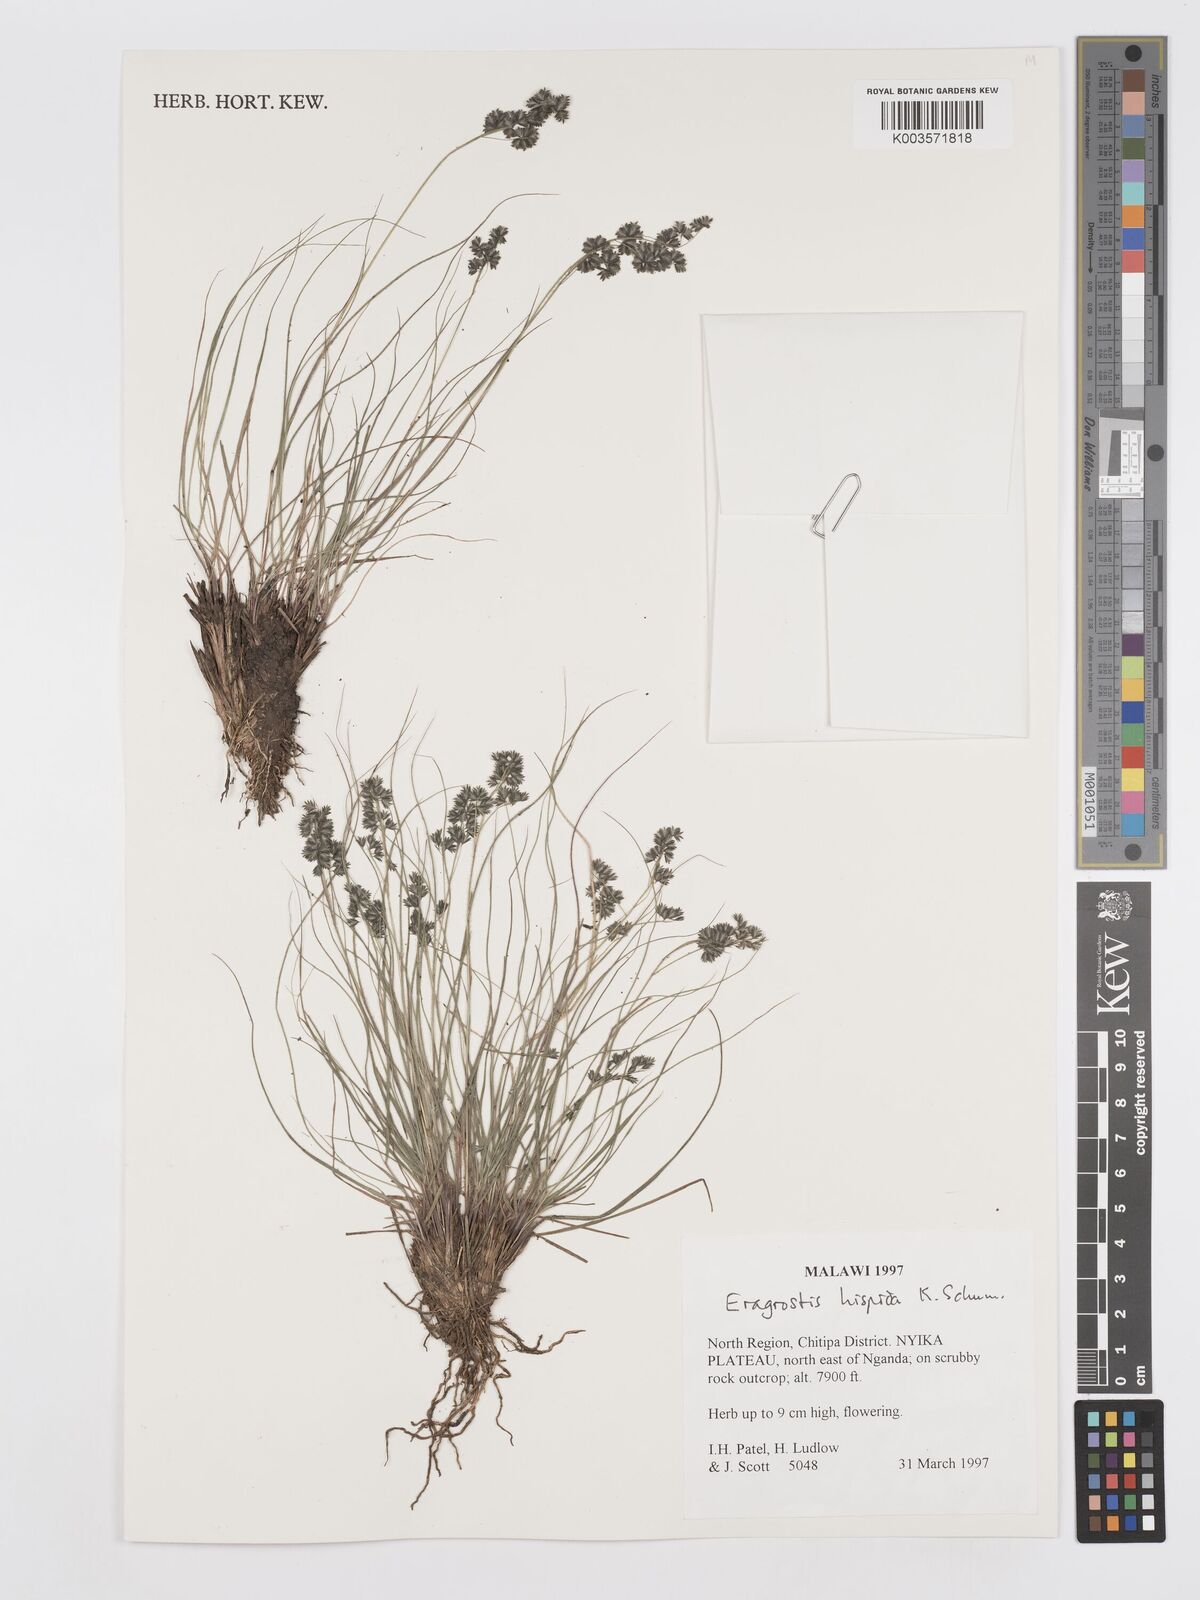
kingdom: Plantae
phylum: Tracheophyta
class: Liliopsida
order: Poales
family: Poaceae
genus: Eragrostis
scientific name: Eragrostis hispida
